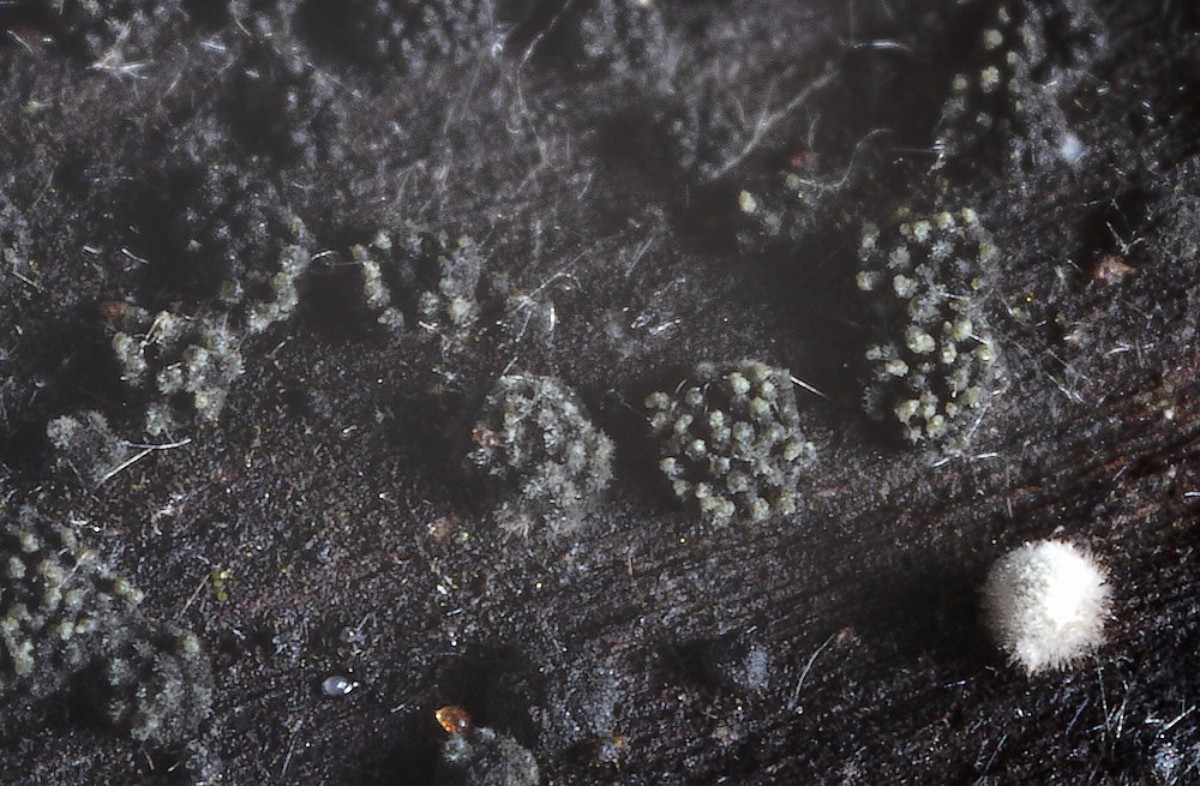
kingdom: Fungi
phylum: Ascomycota
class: Eurotiomycetes
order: Chaetothyriales
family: Herpotrichiellaceae
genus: Capronia
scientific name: Capronia nigerrima
